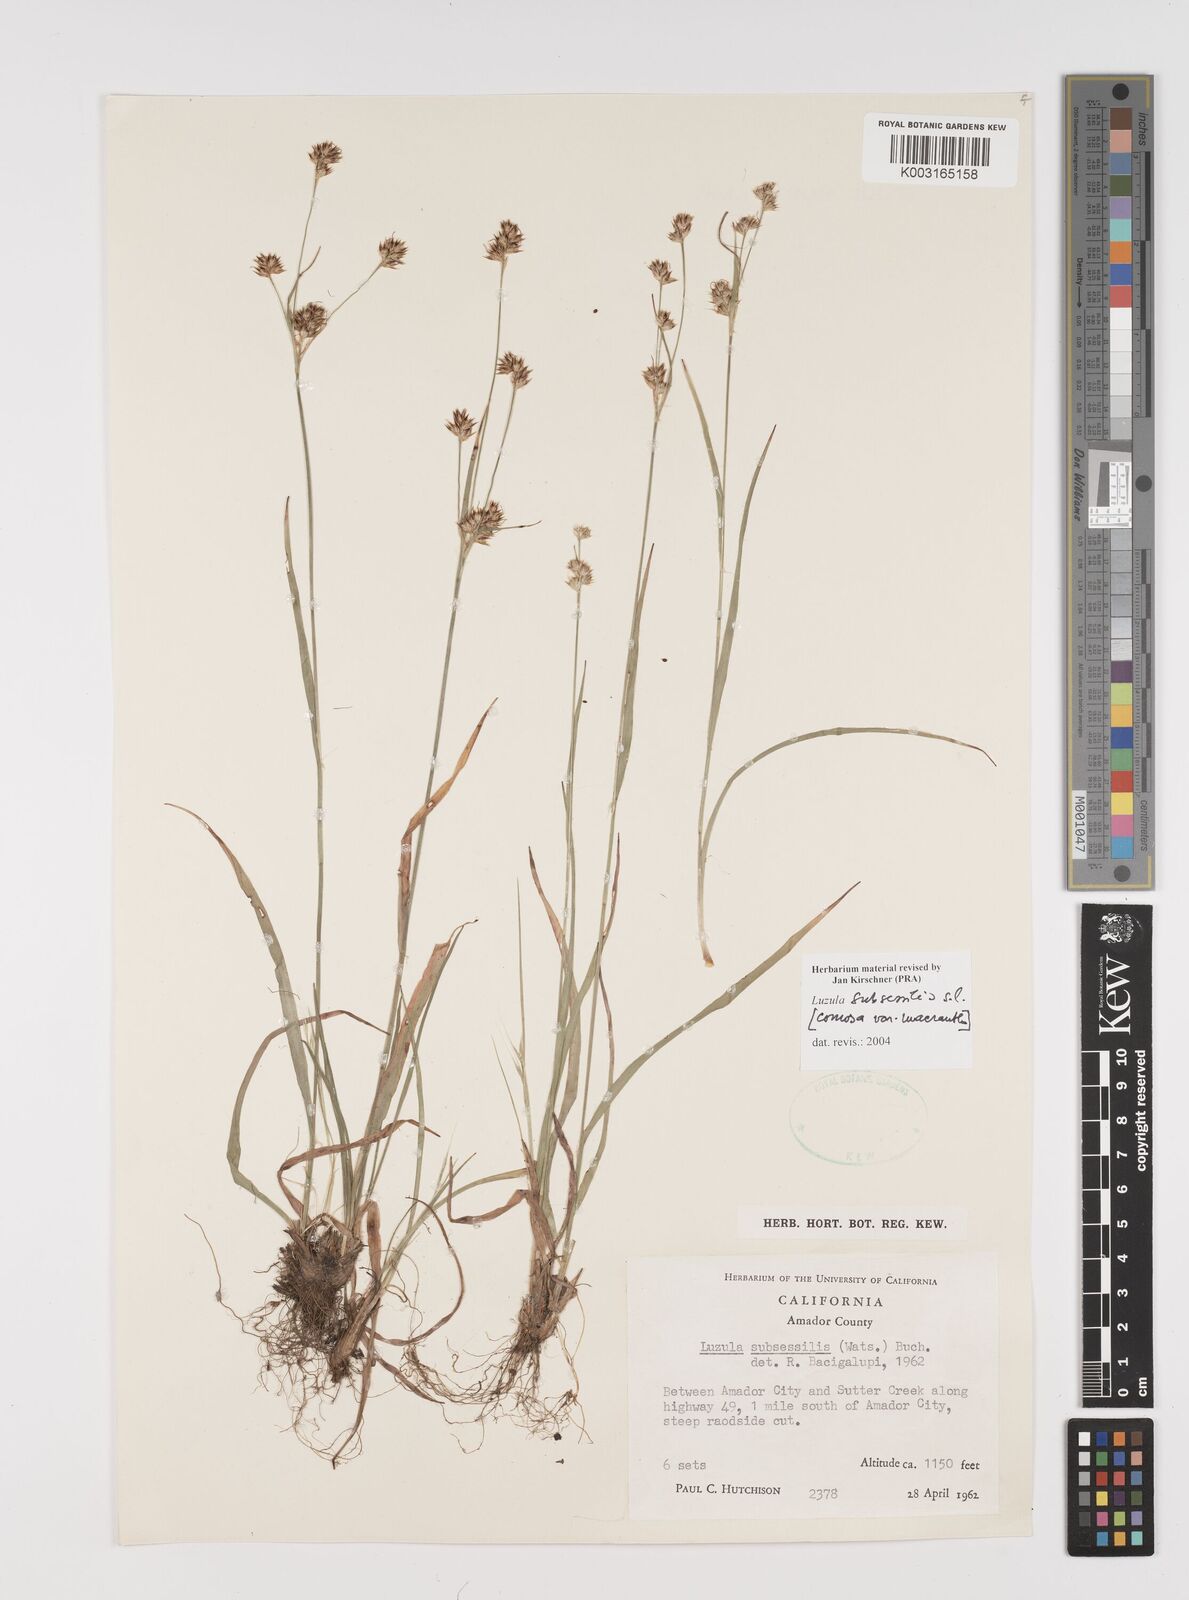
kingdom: Plantae
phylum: Tracheophyta
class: Liliopsida
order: Poales
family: Juncaceae
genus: Luzula
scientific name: Luzula macrantha
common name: Large-anthered woodrush
